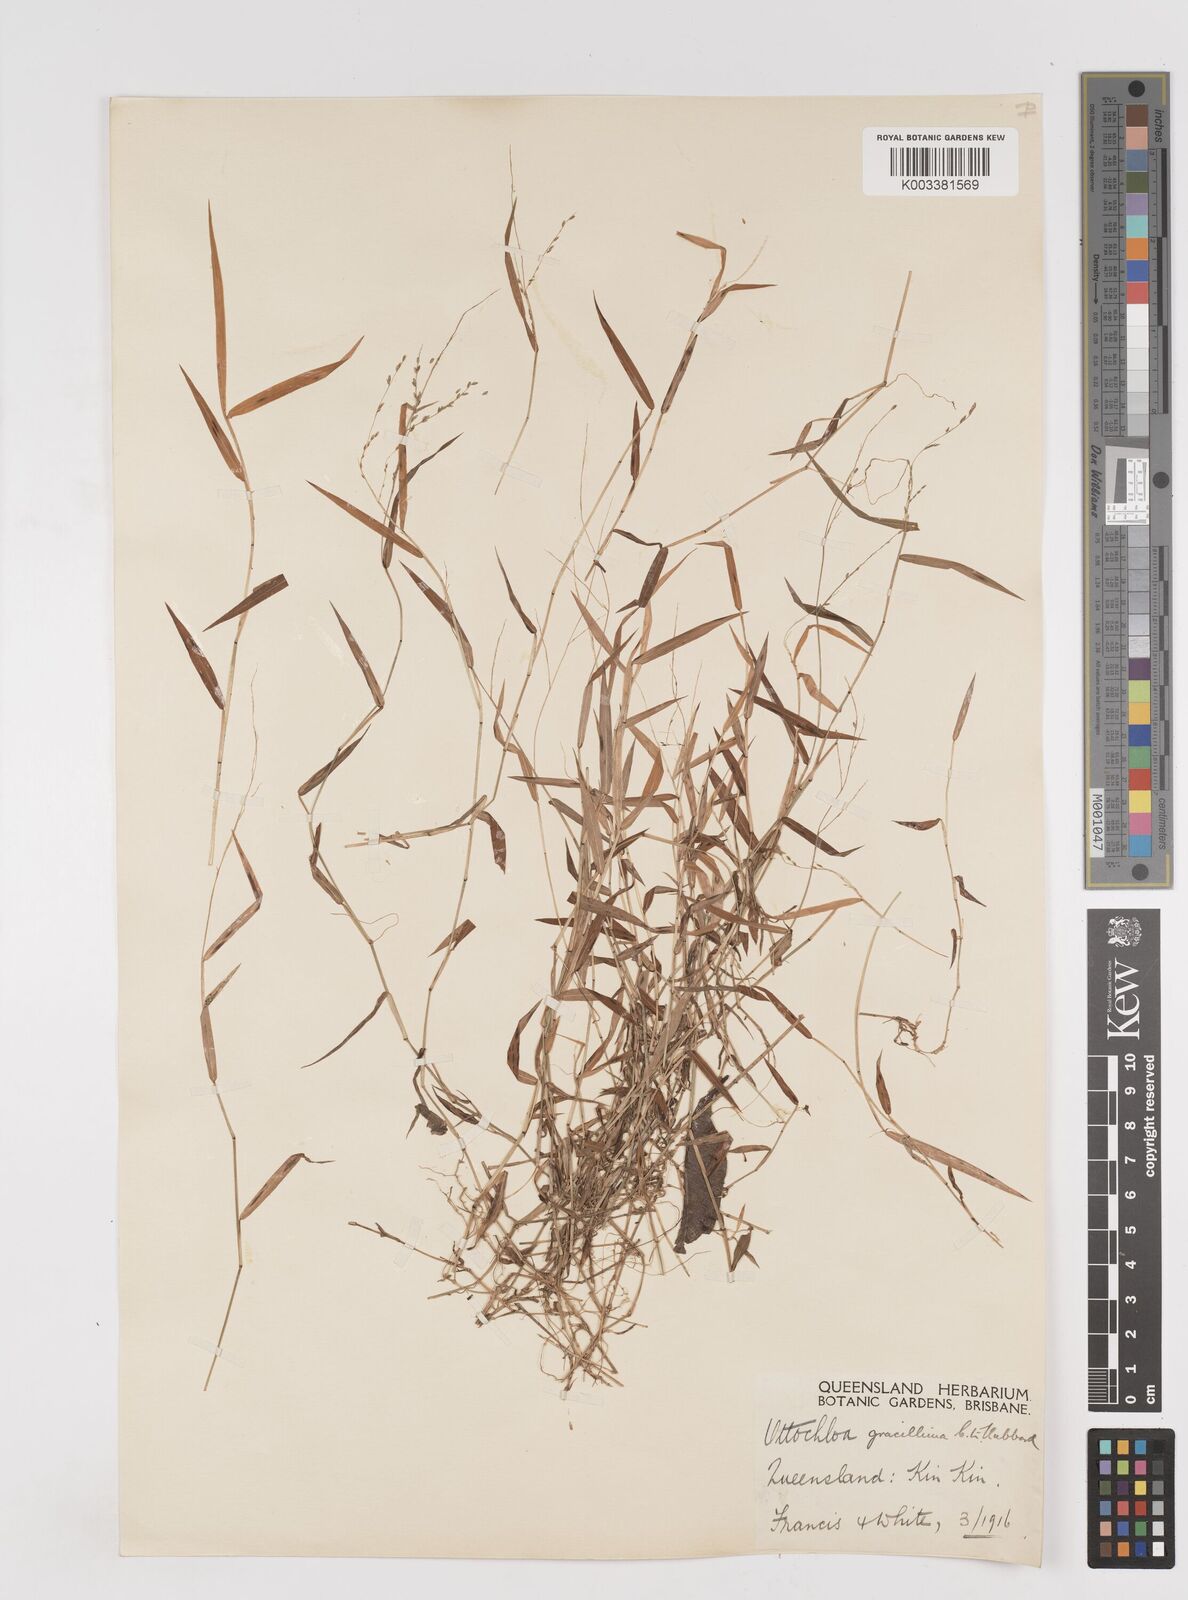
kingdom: Plantae
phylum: Tracheophyta
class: Liliopsida
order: Poales
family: Poaceae
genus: Ottochloa
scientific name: Ottochloa gracillima
